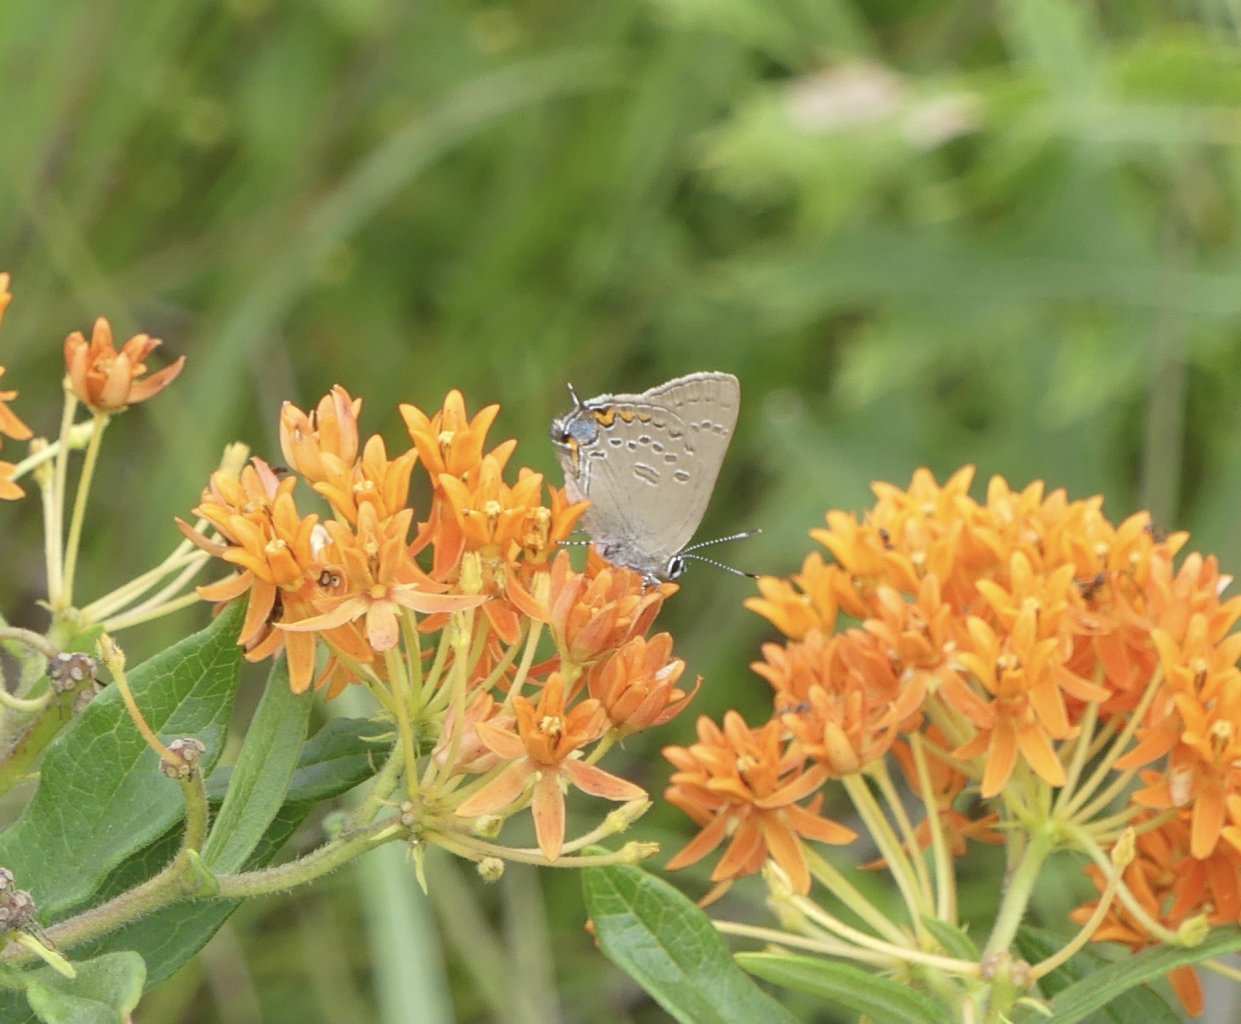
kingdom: Animalia
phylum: Arthropoda
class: Insecta
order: Lepidoptera
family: Lycaenidae
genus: Satyrium
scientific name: Satyrium edwardsii
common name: Edwards' Hairstreak
